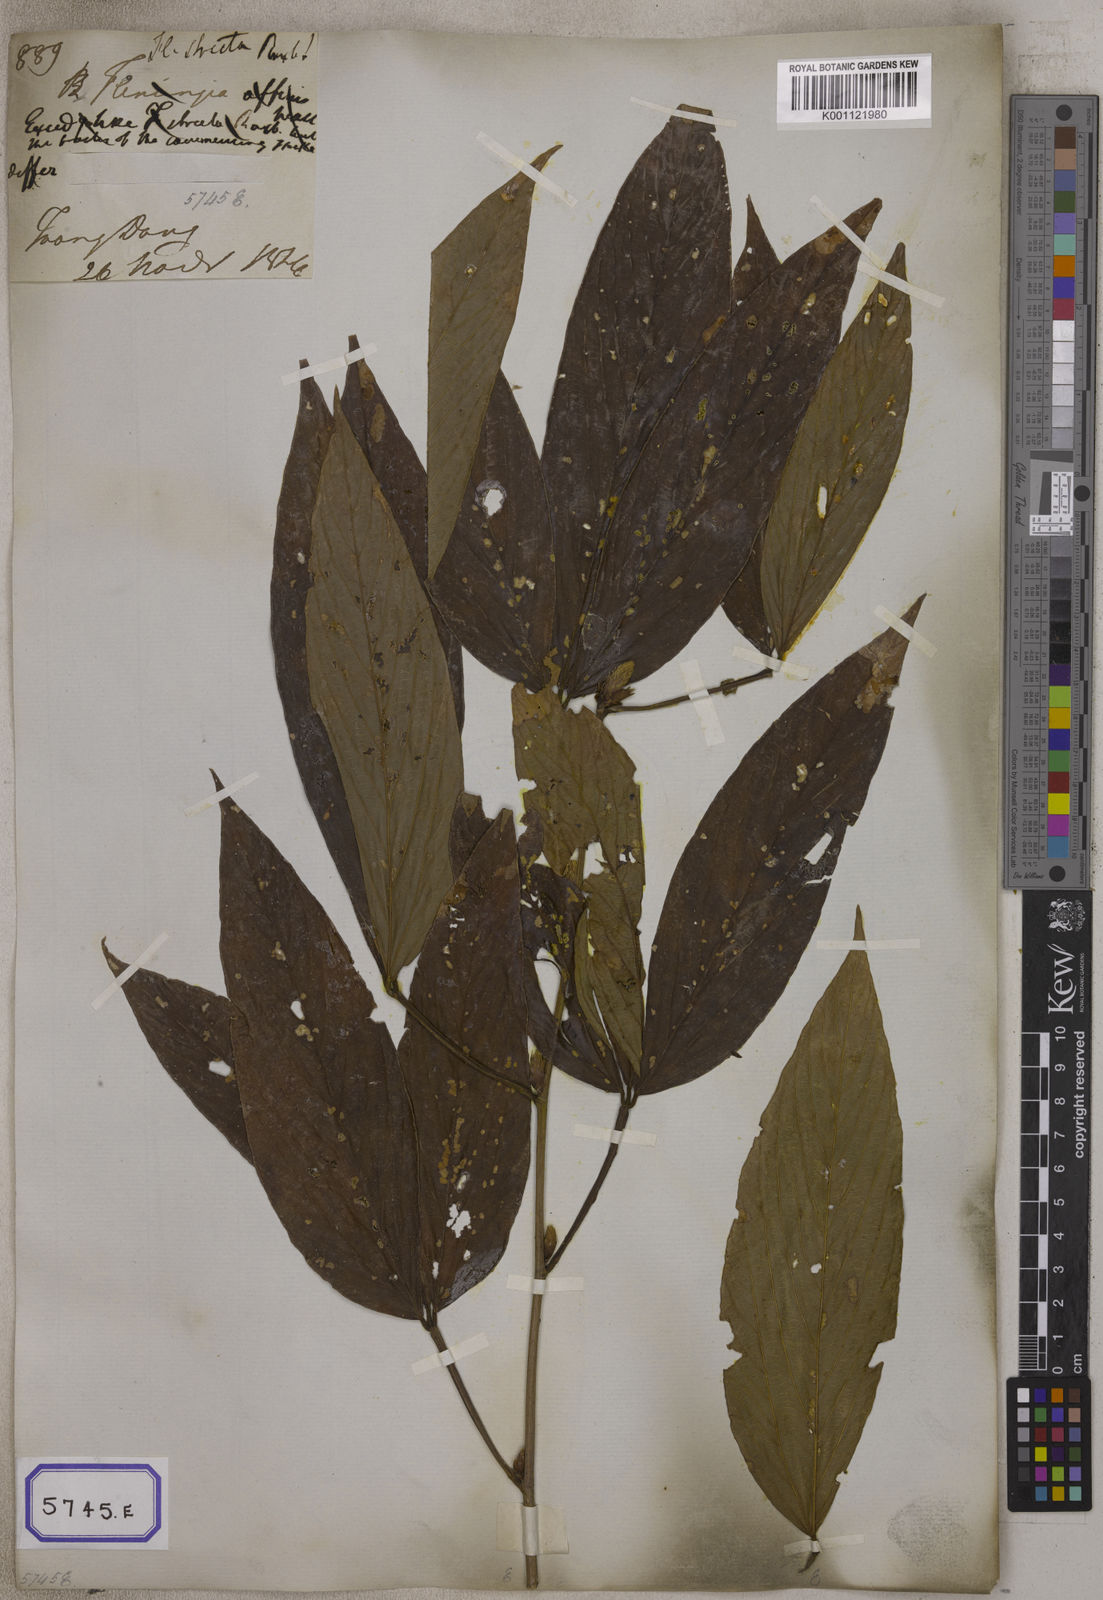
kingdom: Plantae
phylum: Tracheophyta
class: Magnoliopsida
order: Fabales
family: Fabaceae
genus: Flemingia
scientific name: Flemingia
